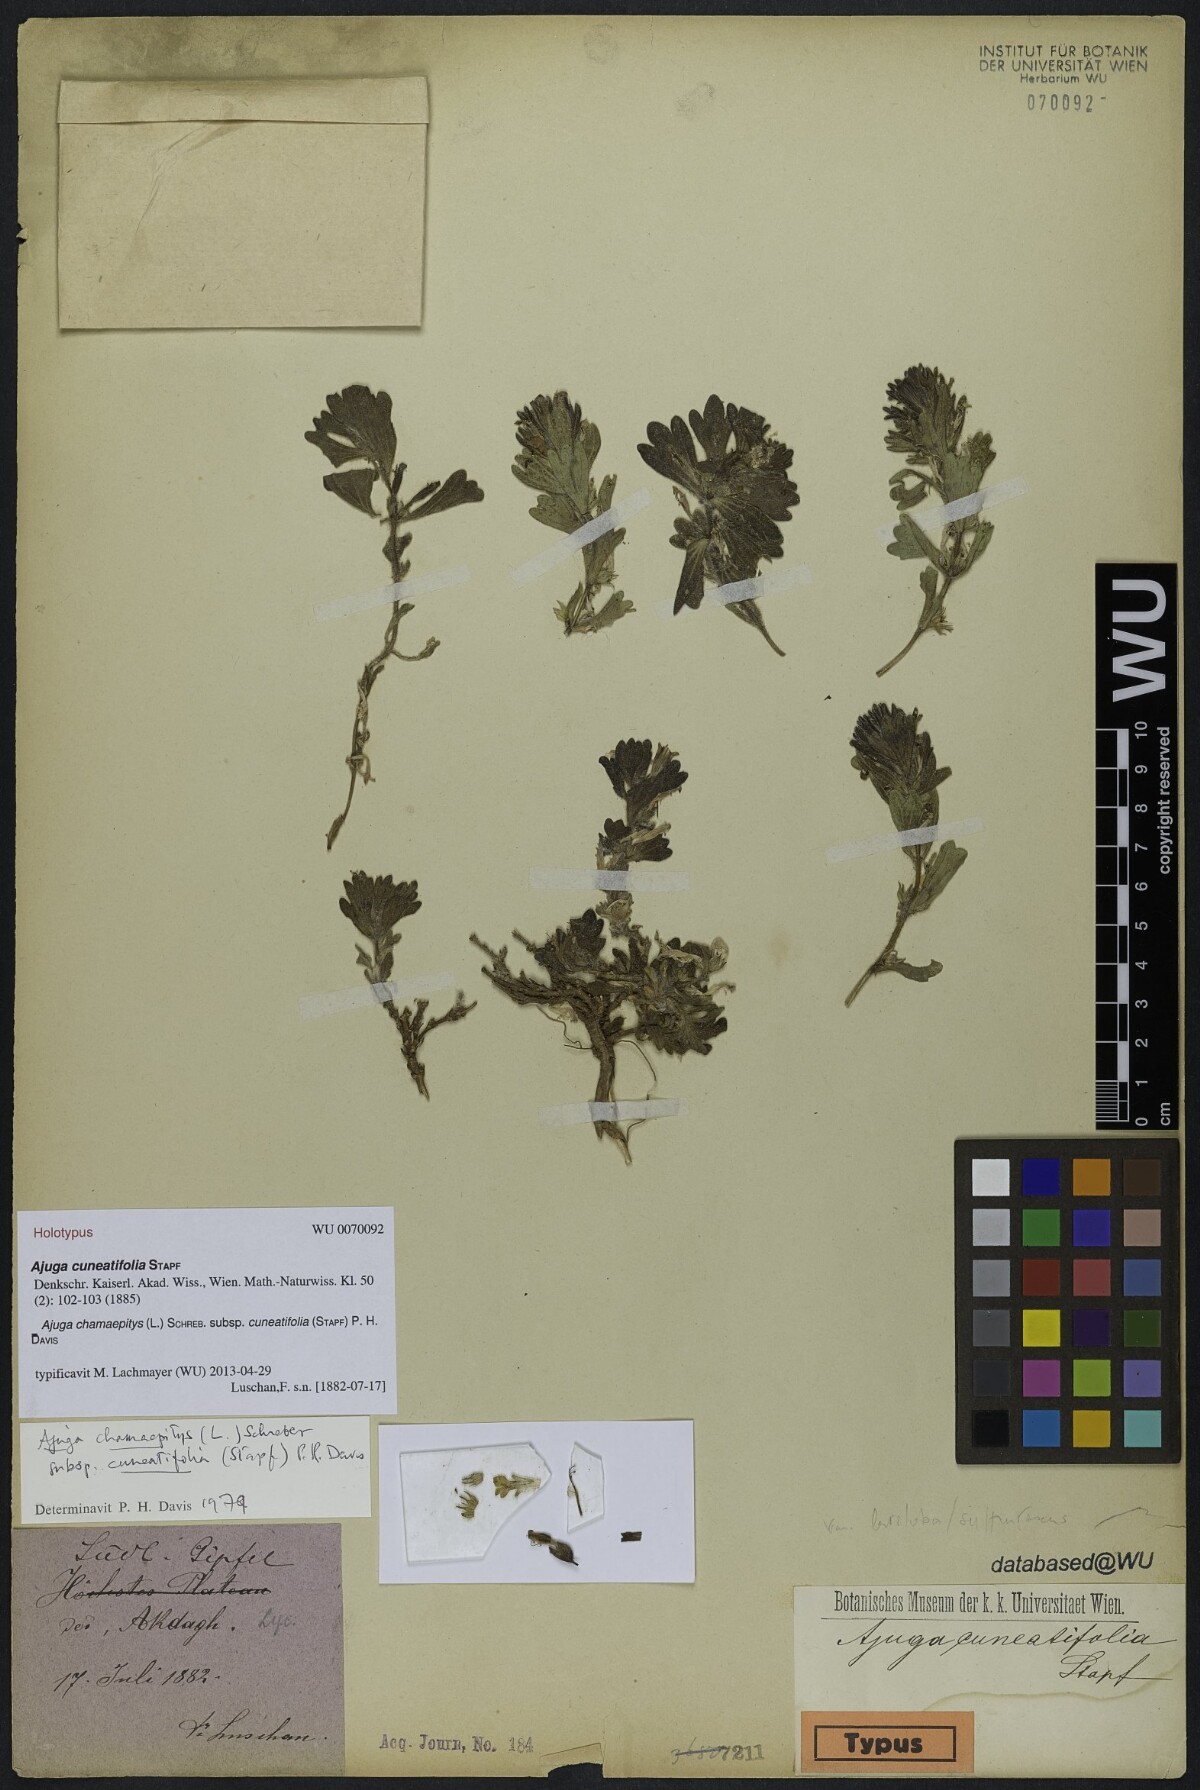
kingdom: Plantae
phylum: Tracheophyta
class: Magnoliopsida
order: Lamiales
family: Lamiaceae
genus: Ajuga
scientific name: Ajuga chamaepitys
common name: Ground-pine
